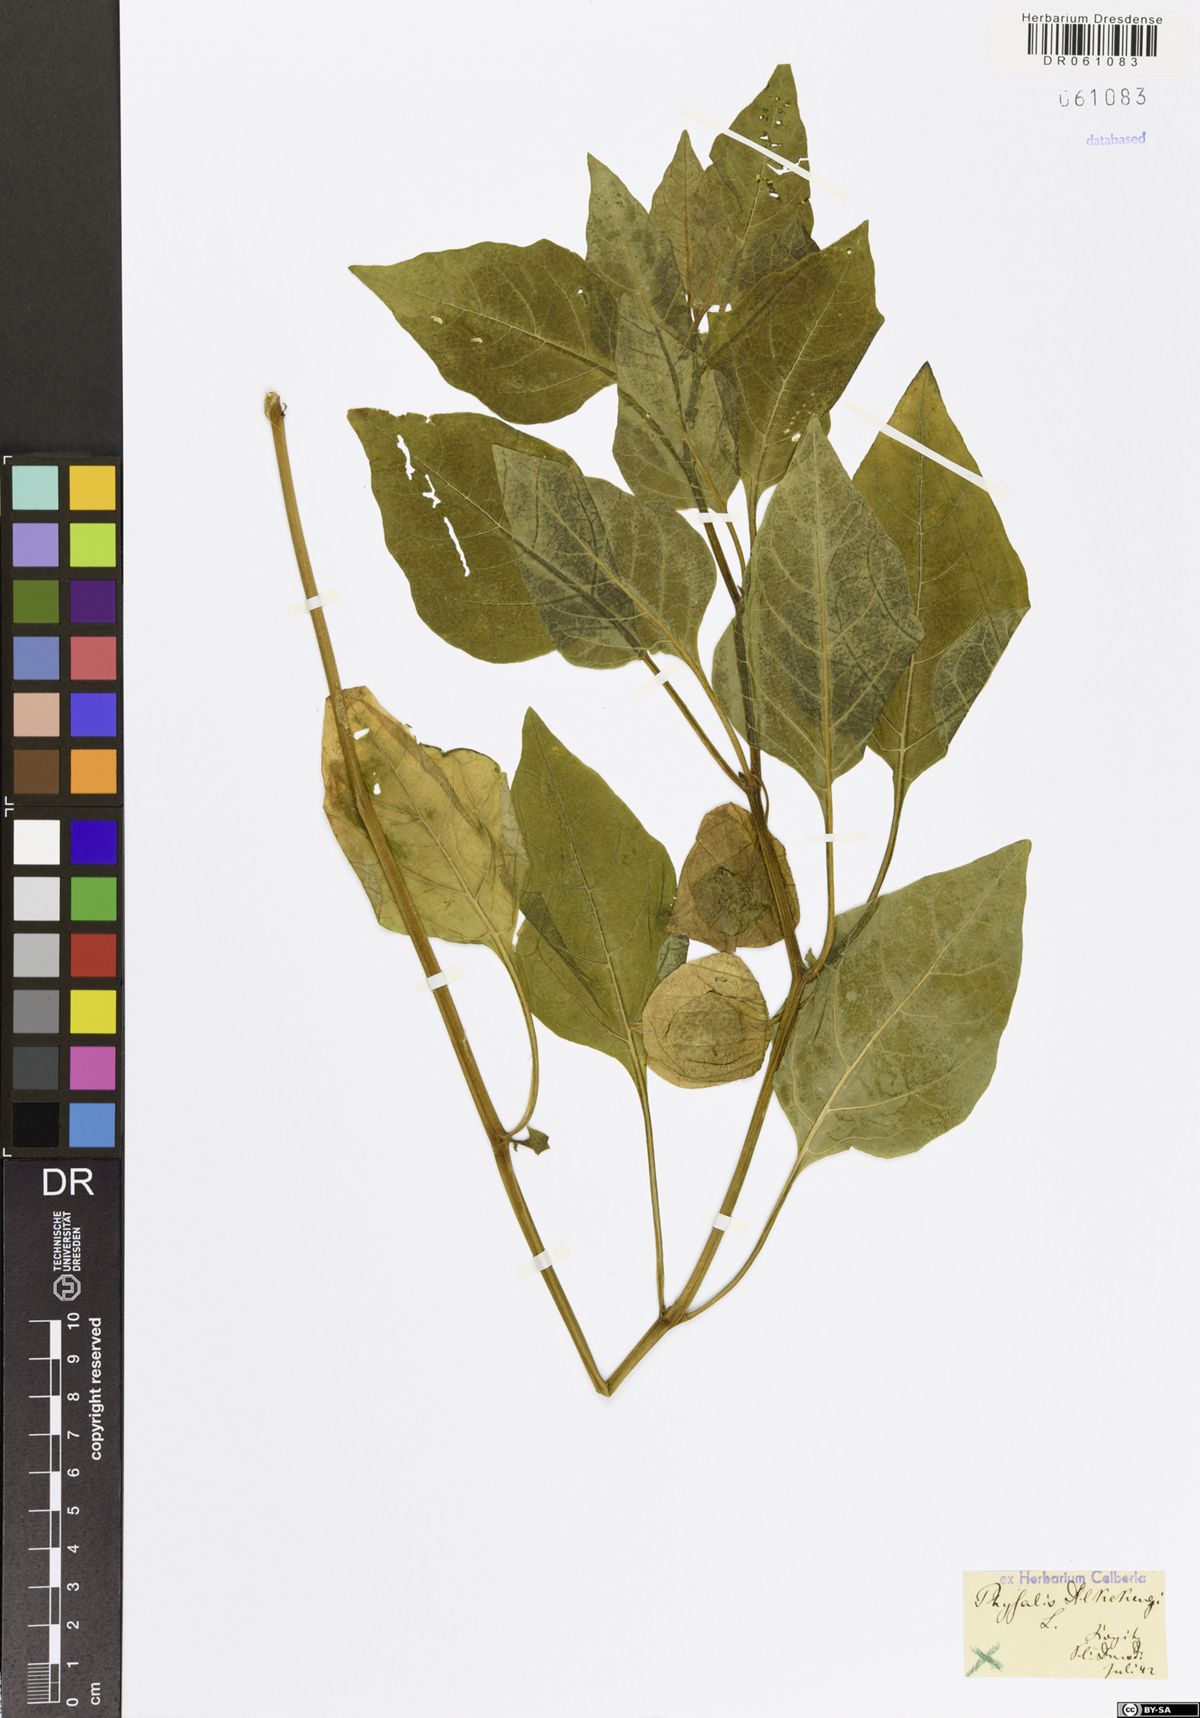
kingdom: Plantae
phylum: Tracheophyta
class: Magnoliopsida
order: Solanales
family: Solanaceae
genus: Alkekengi
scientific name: Alkekengi officinarum
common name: Japanese-lantern
